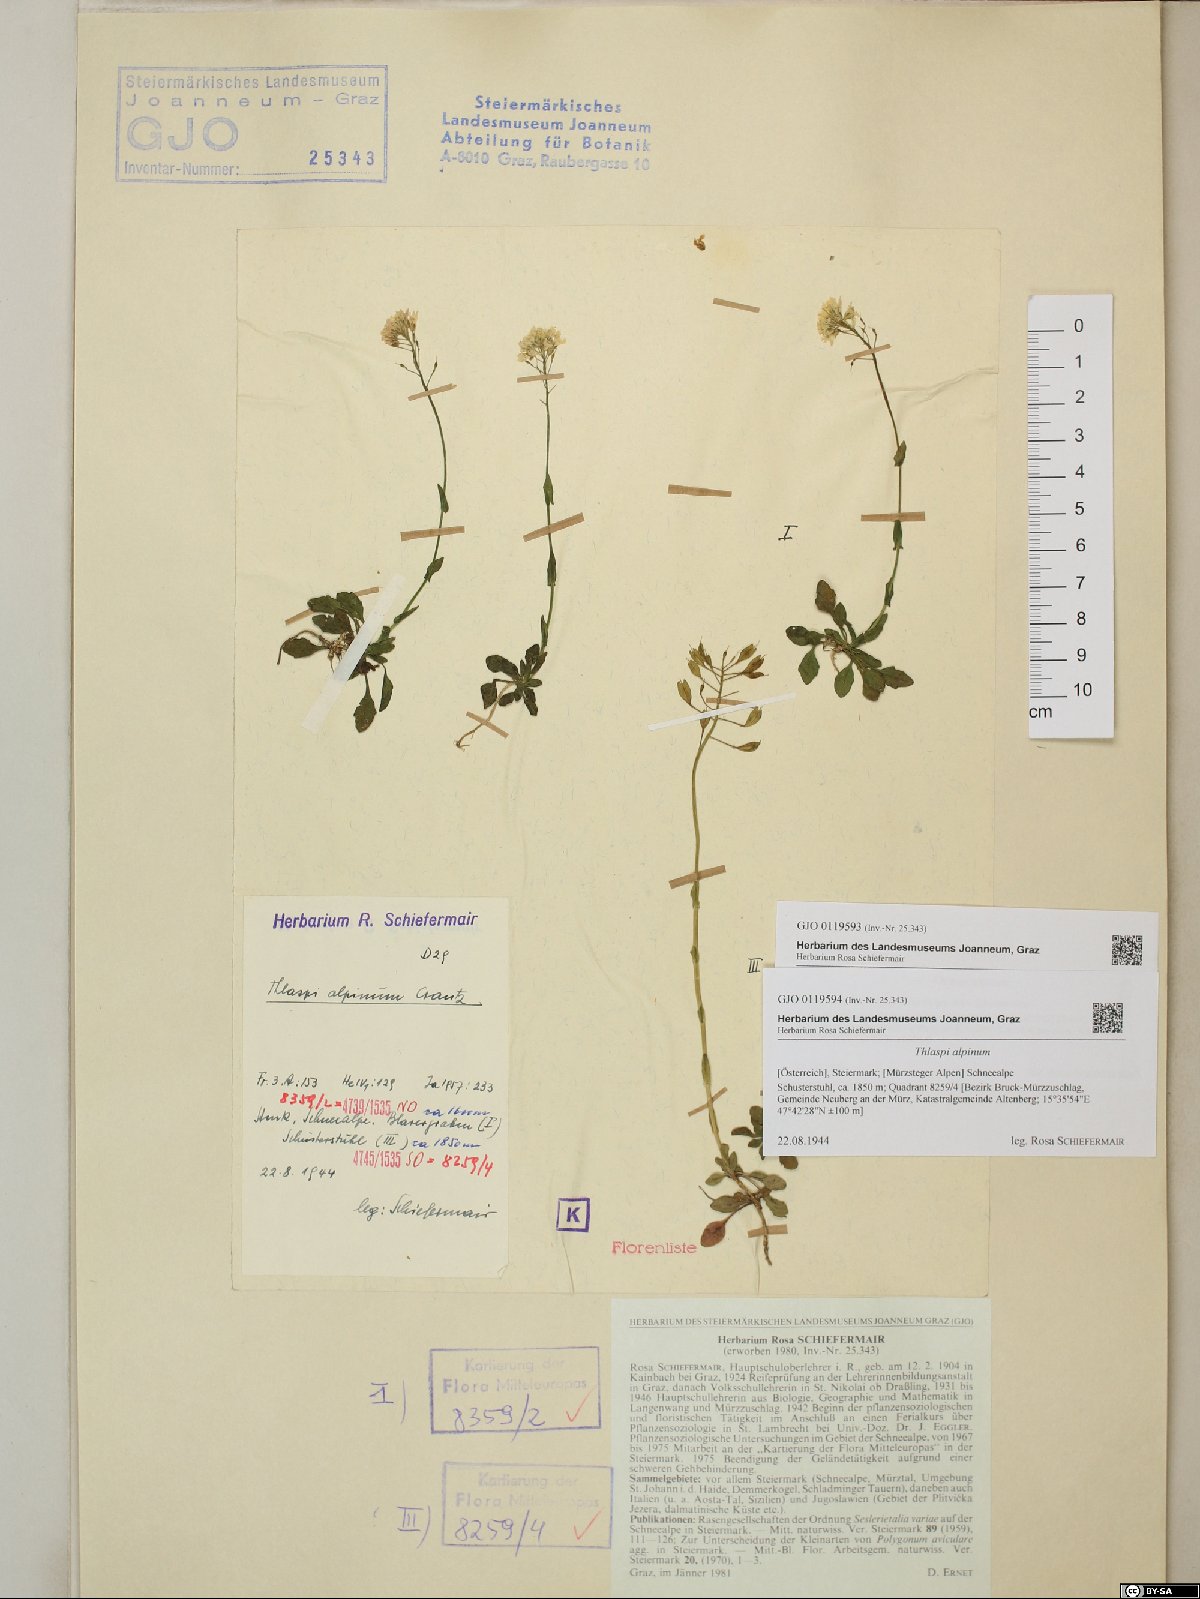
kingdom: Plantae
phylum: Tracheophyta
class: Magnoliopsida
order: Brassicales
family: Brassicaceae
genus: Noccaea
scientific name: Noccaea alpestris
